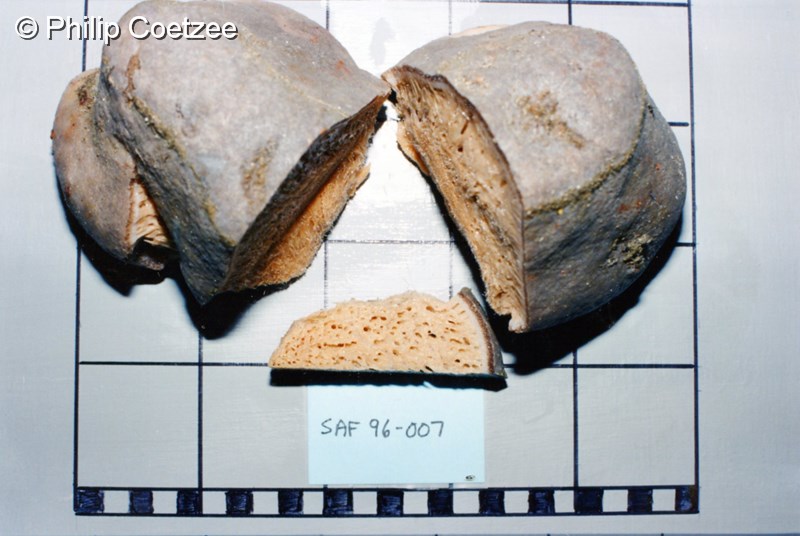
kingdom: Animalia
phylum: Porifera
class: Demospongiae
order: Tetractinellida
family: Ancorinidae
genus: Stelletta
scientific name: Stelletta trisclera
